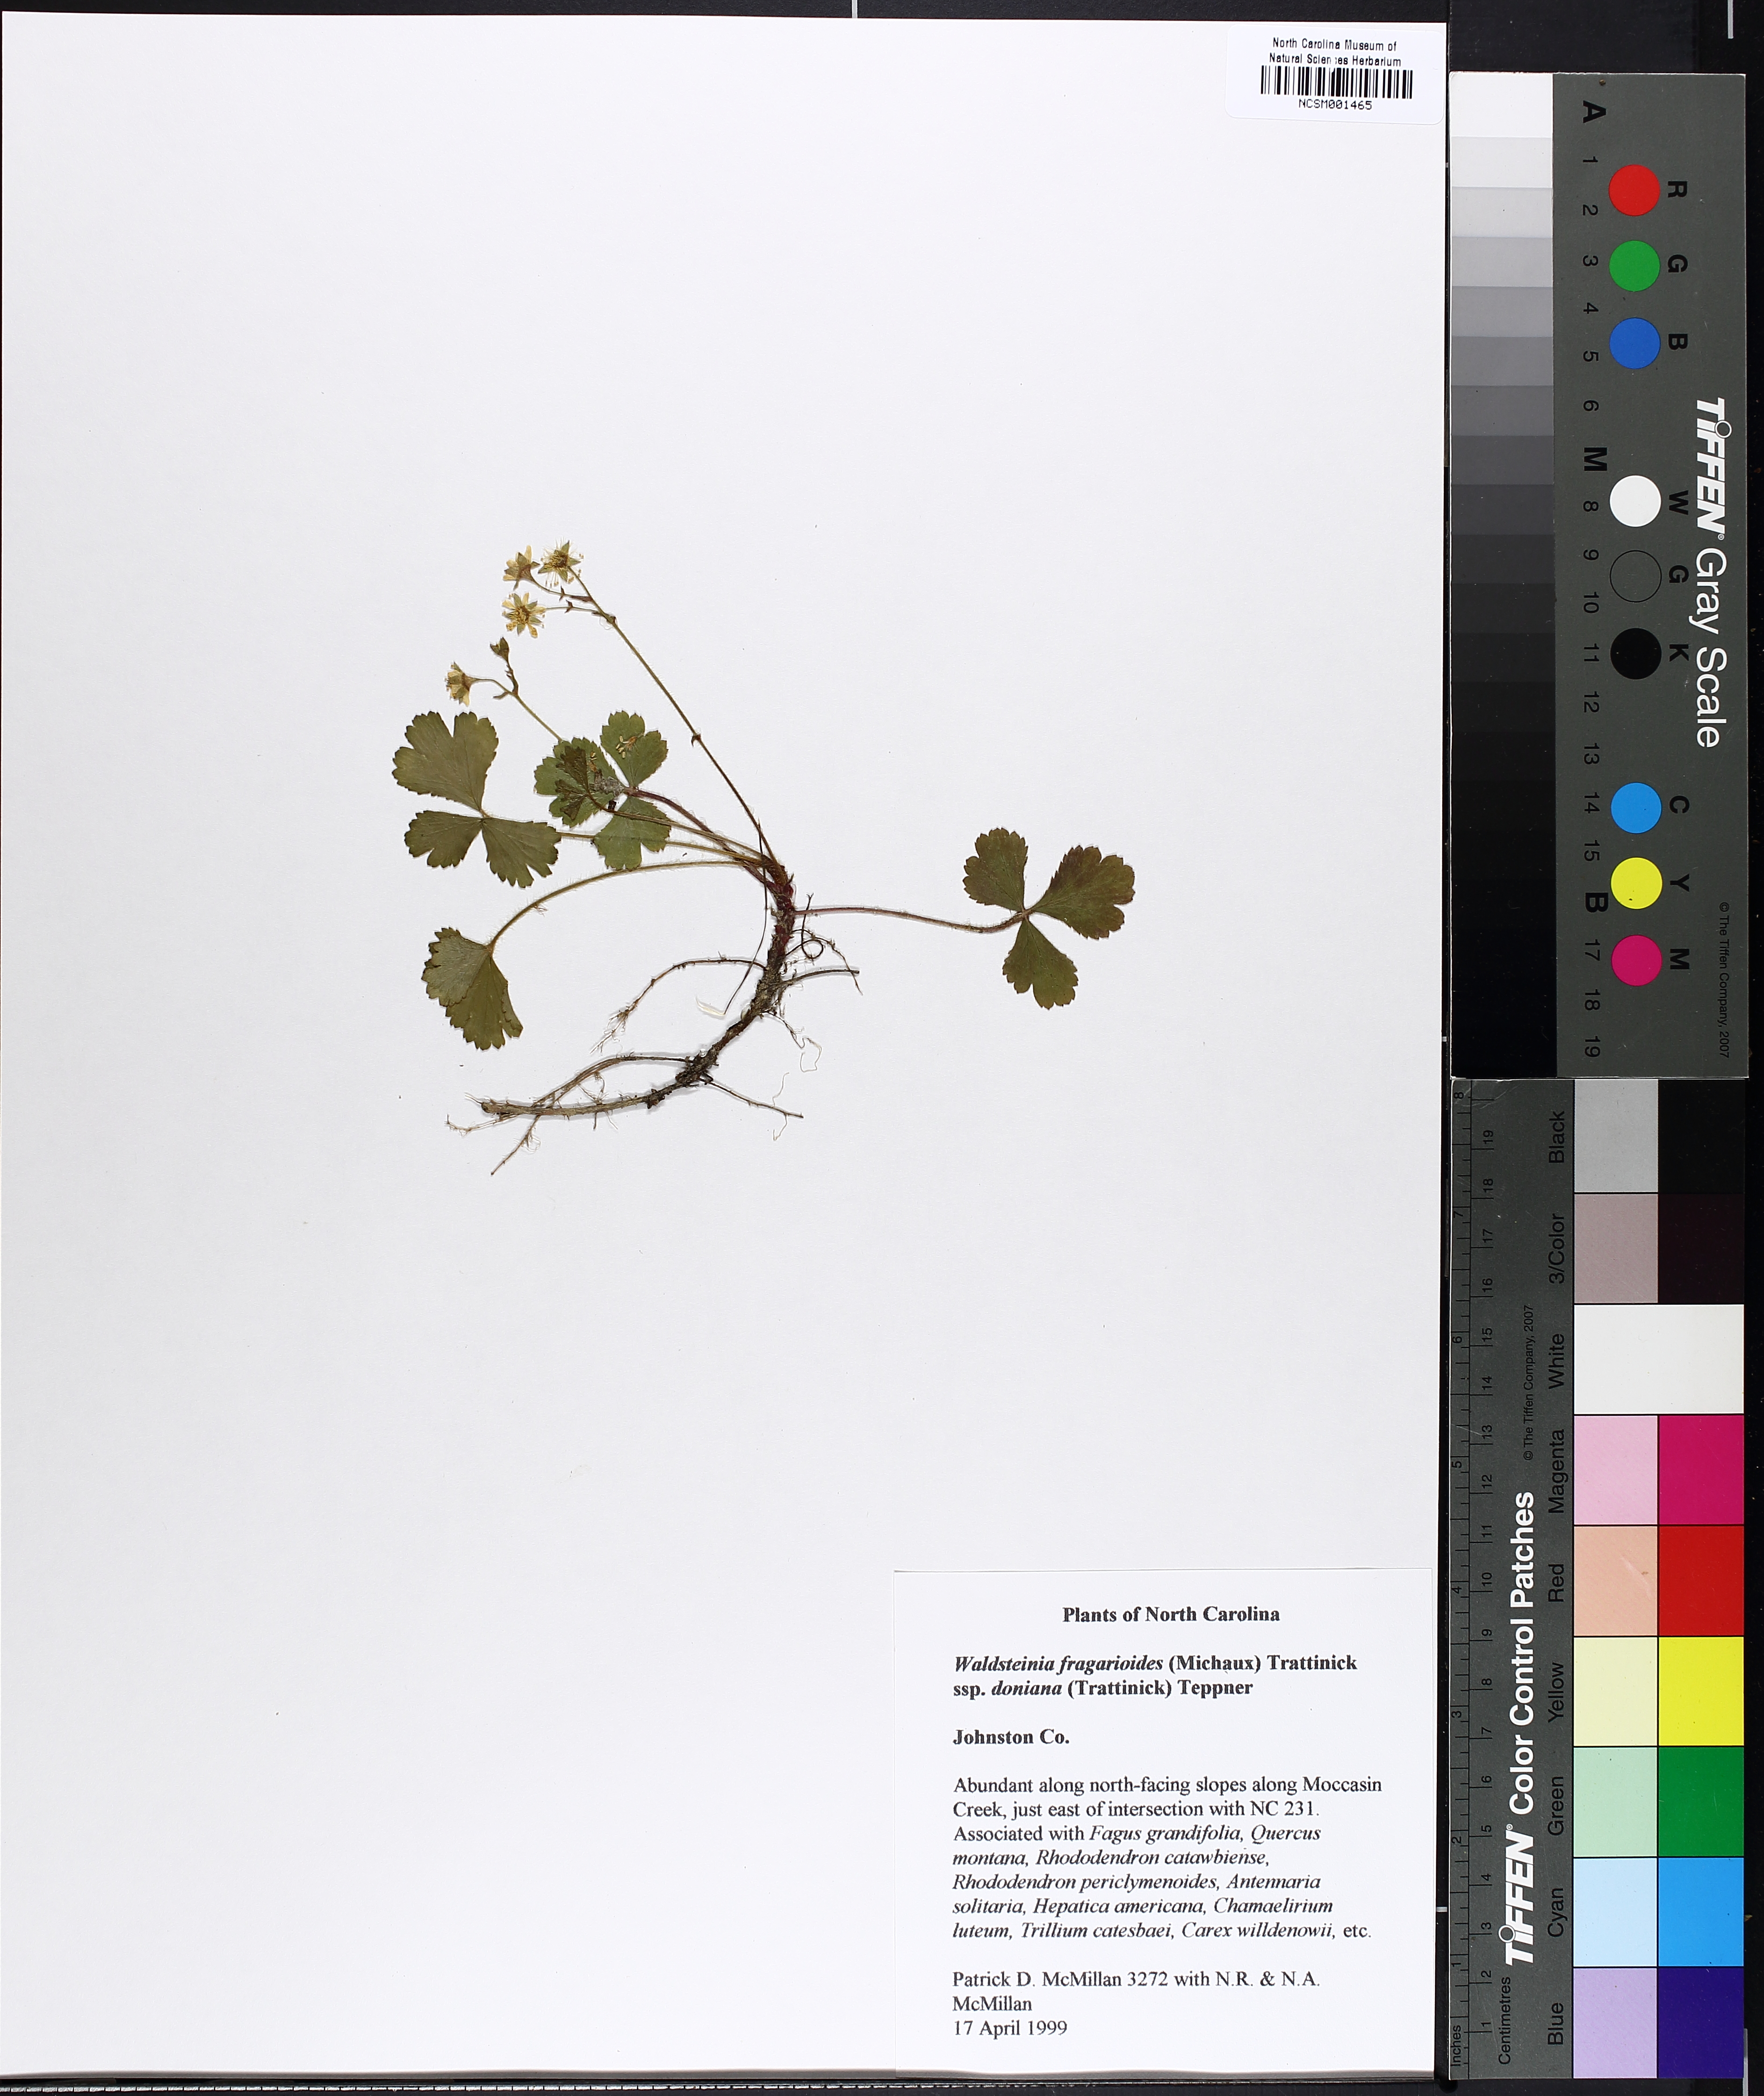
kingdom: Plantae
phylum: Tracheophyta
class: Magnoliopsida
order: Rosales
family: Rosaceae
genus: Geum
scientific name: Geum donianum
